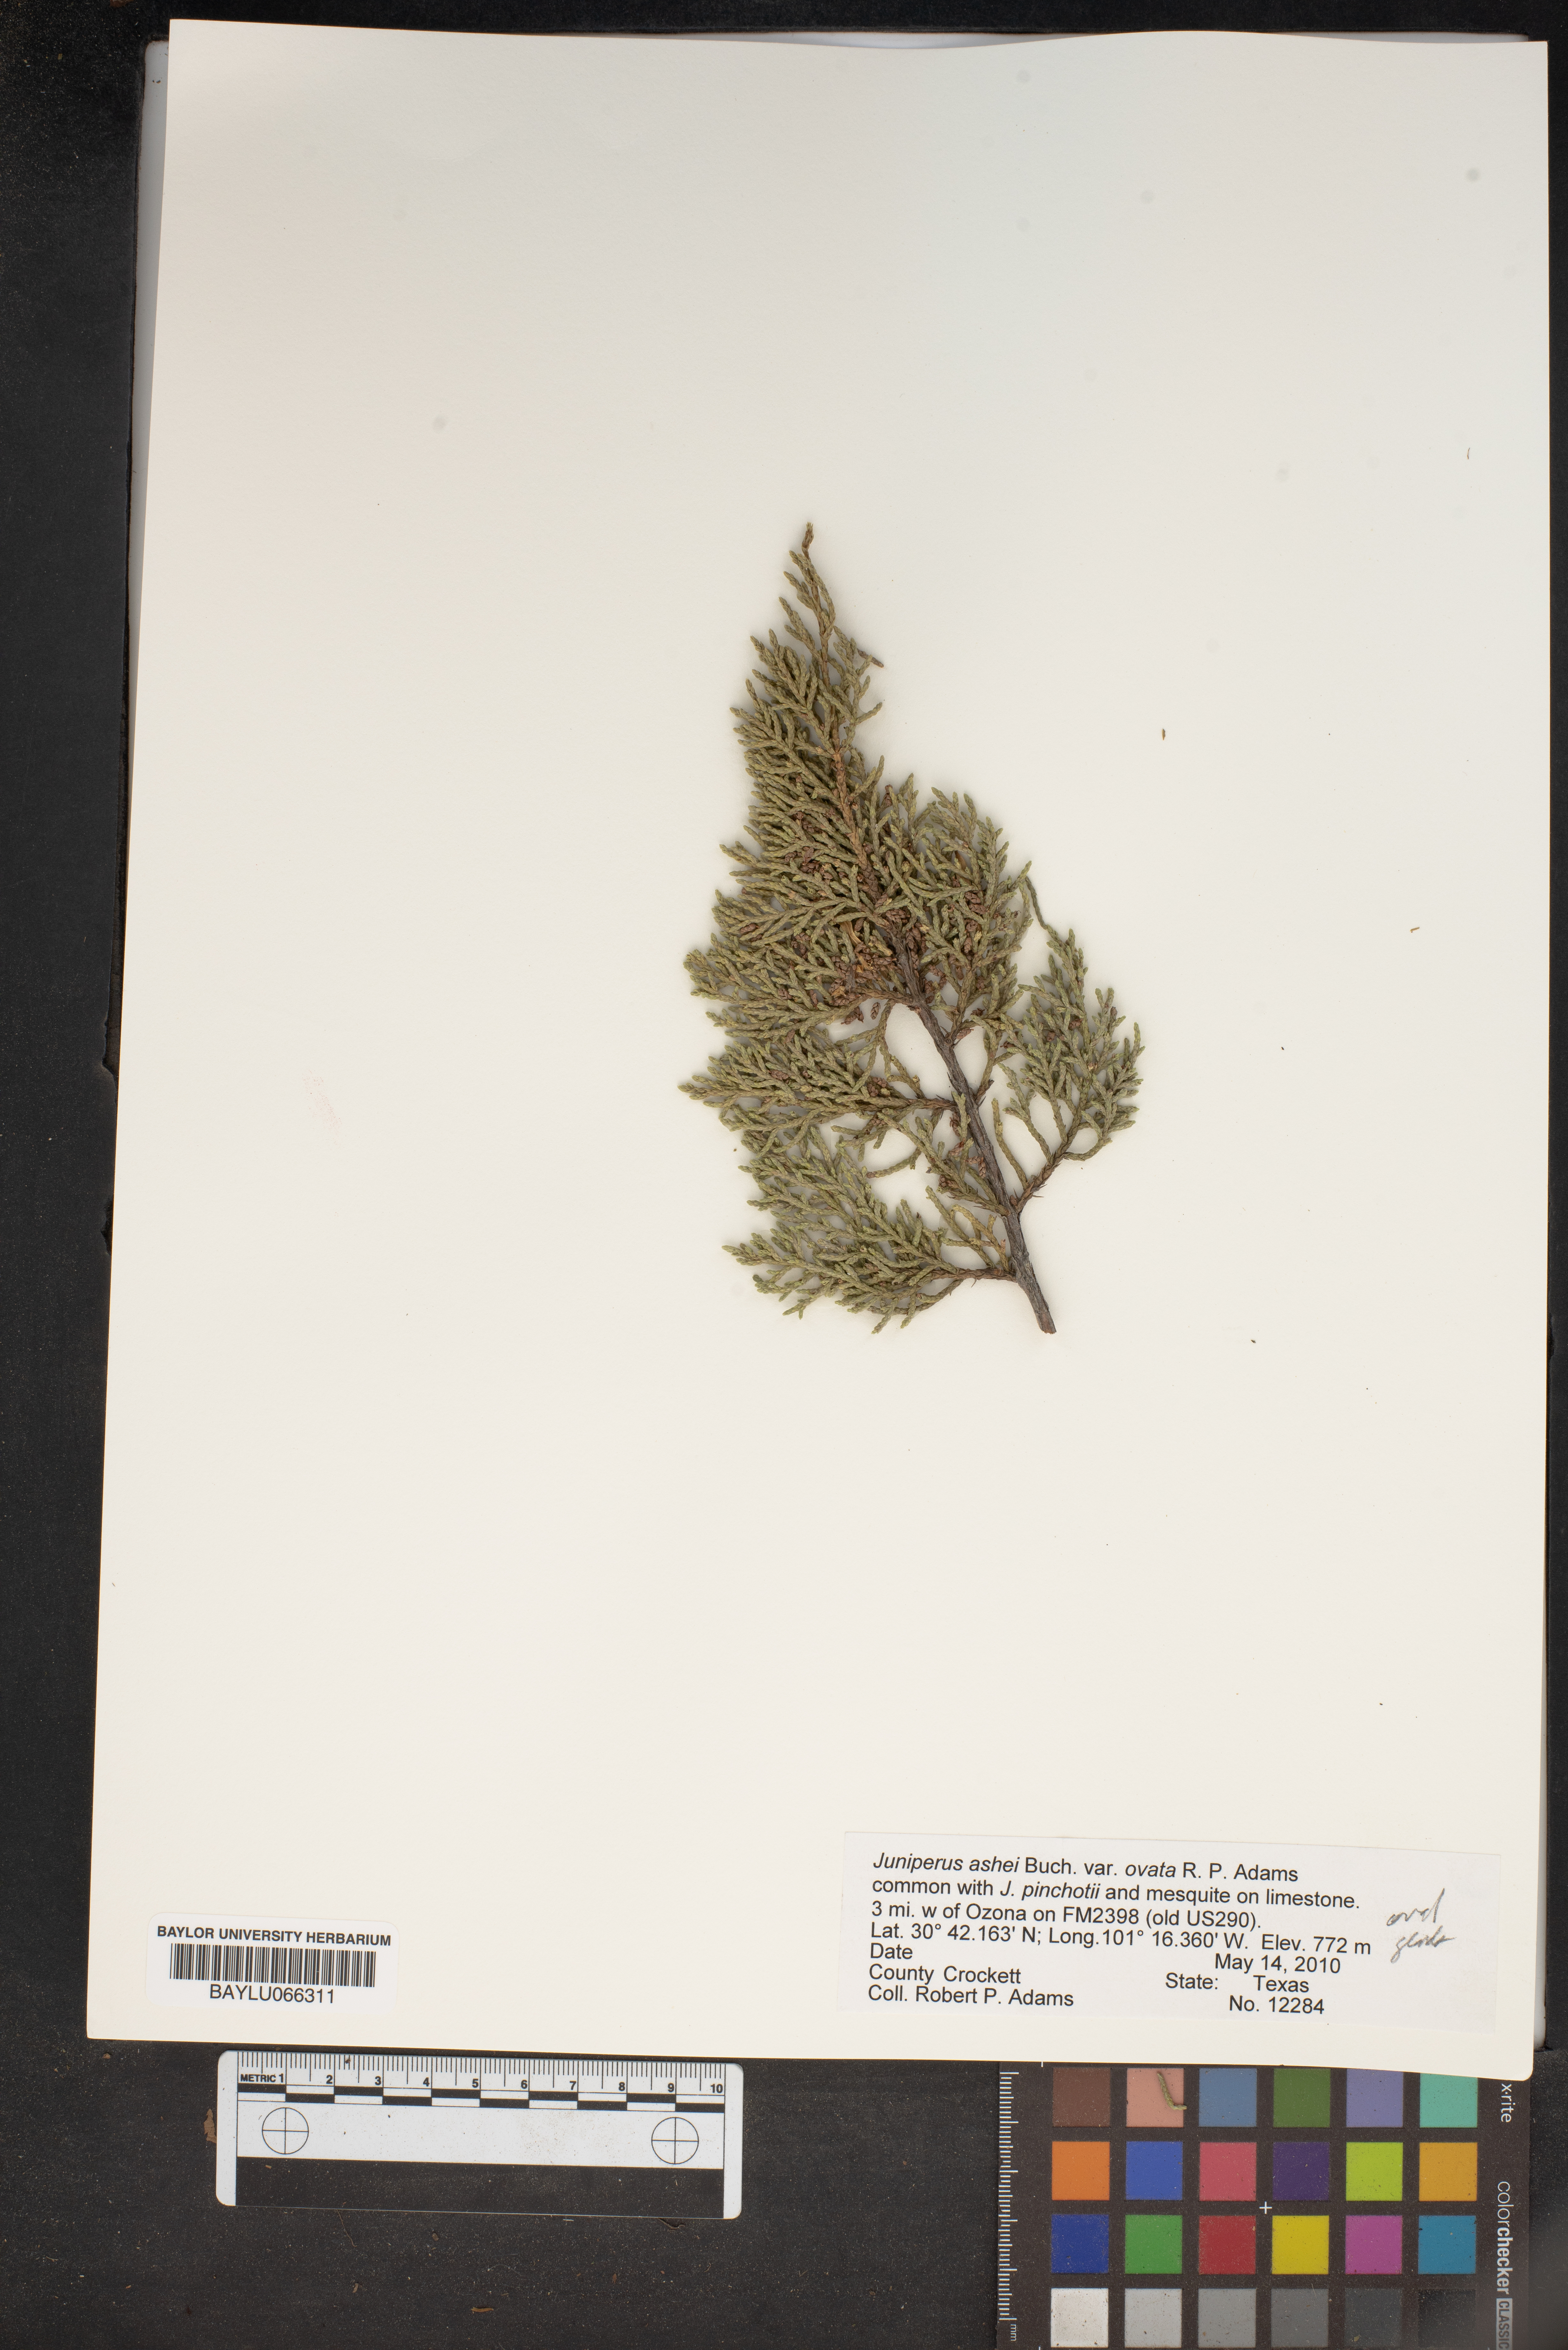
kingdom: Plantae
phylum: Tracheophyta
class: Pinopsida
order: Pinales
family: Cupressaceae
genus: Juniperus
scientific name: Juniperus ashei
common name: Mexican juniper
